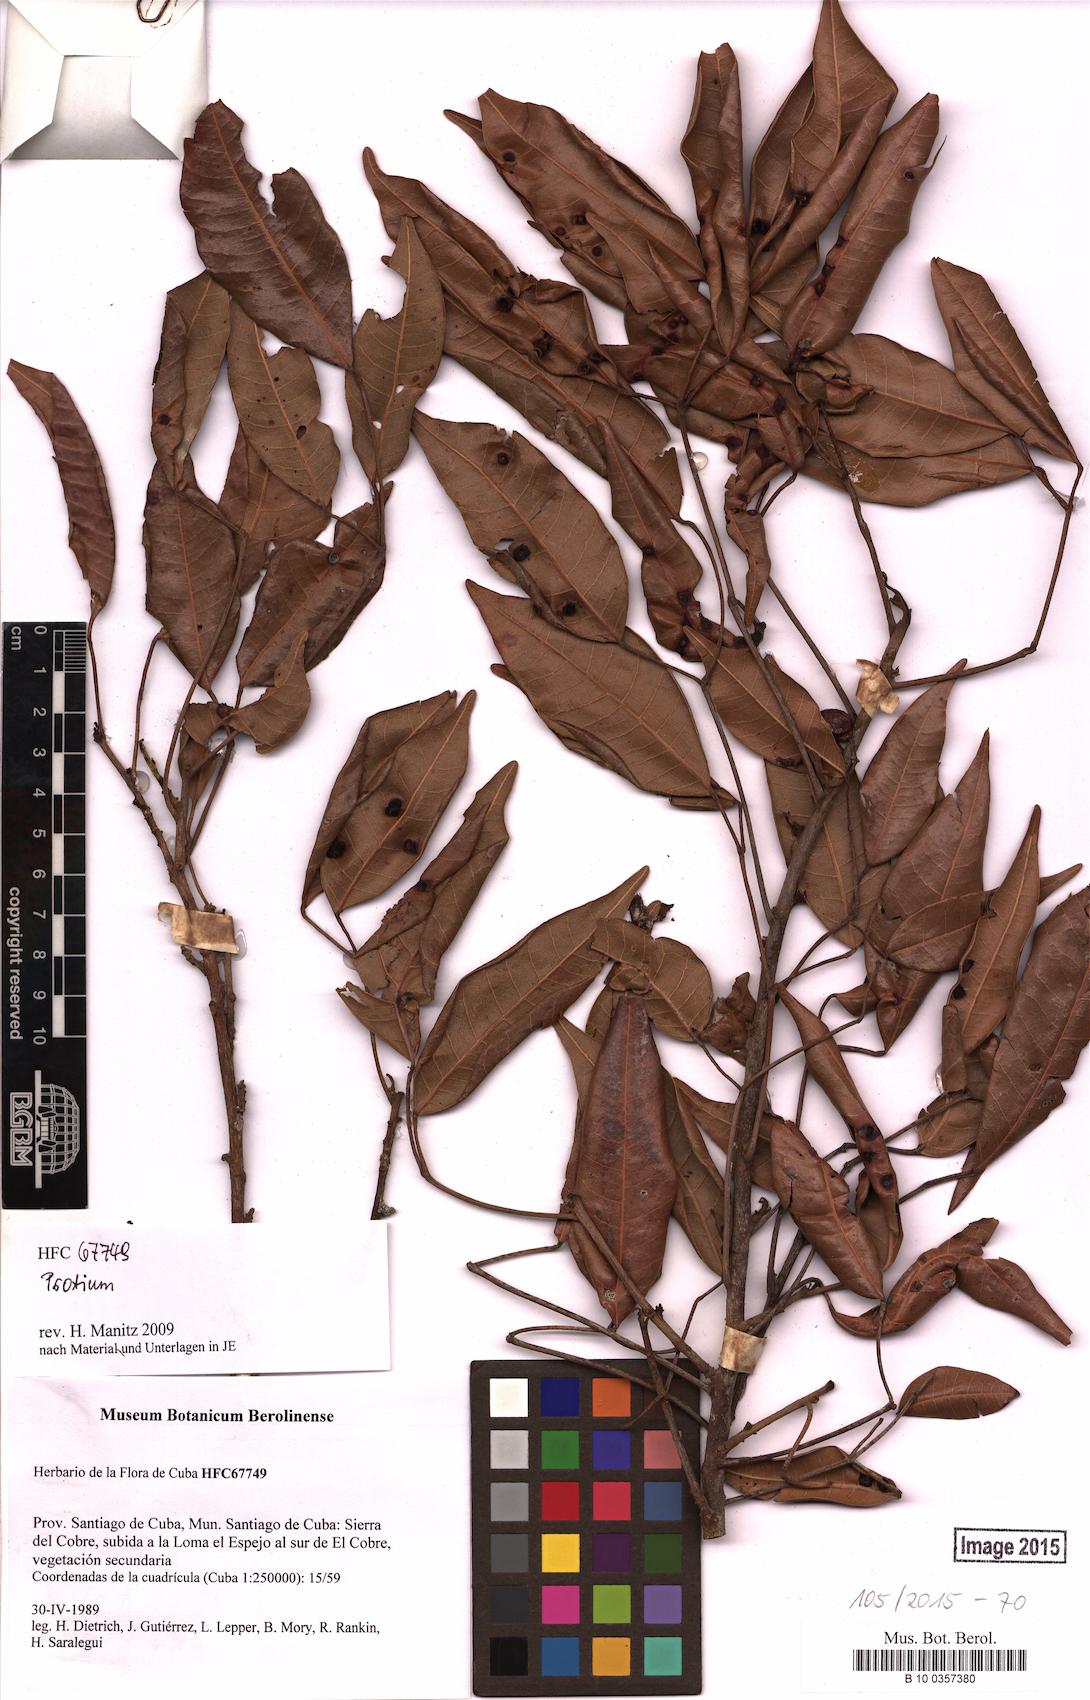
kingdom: Plantae
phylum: Tracheophyta
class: Magnoliopsida
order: Sapindales
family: Burseraceae
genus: Protium
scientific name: Protium
